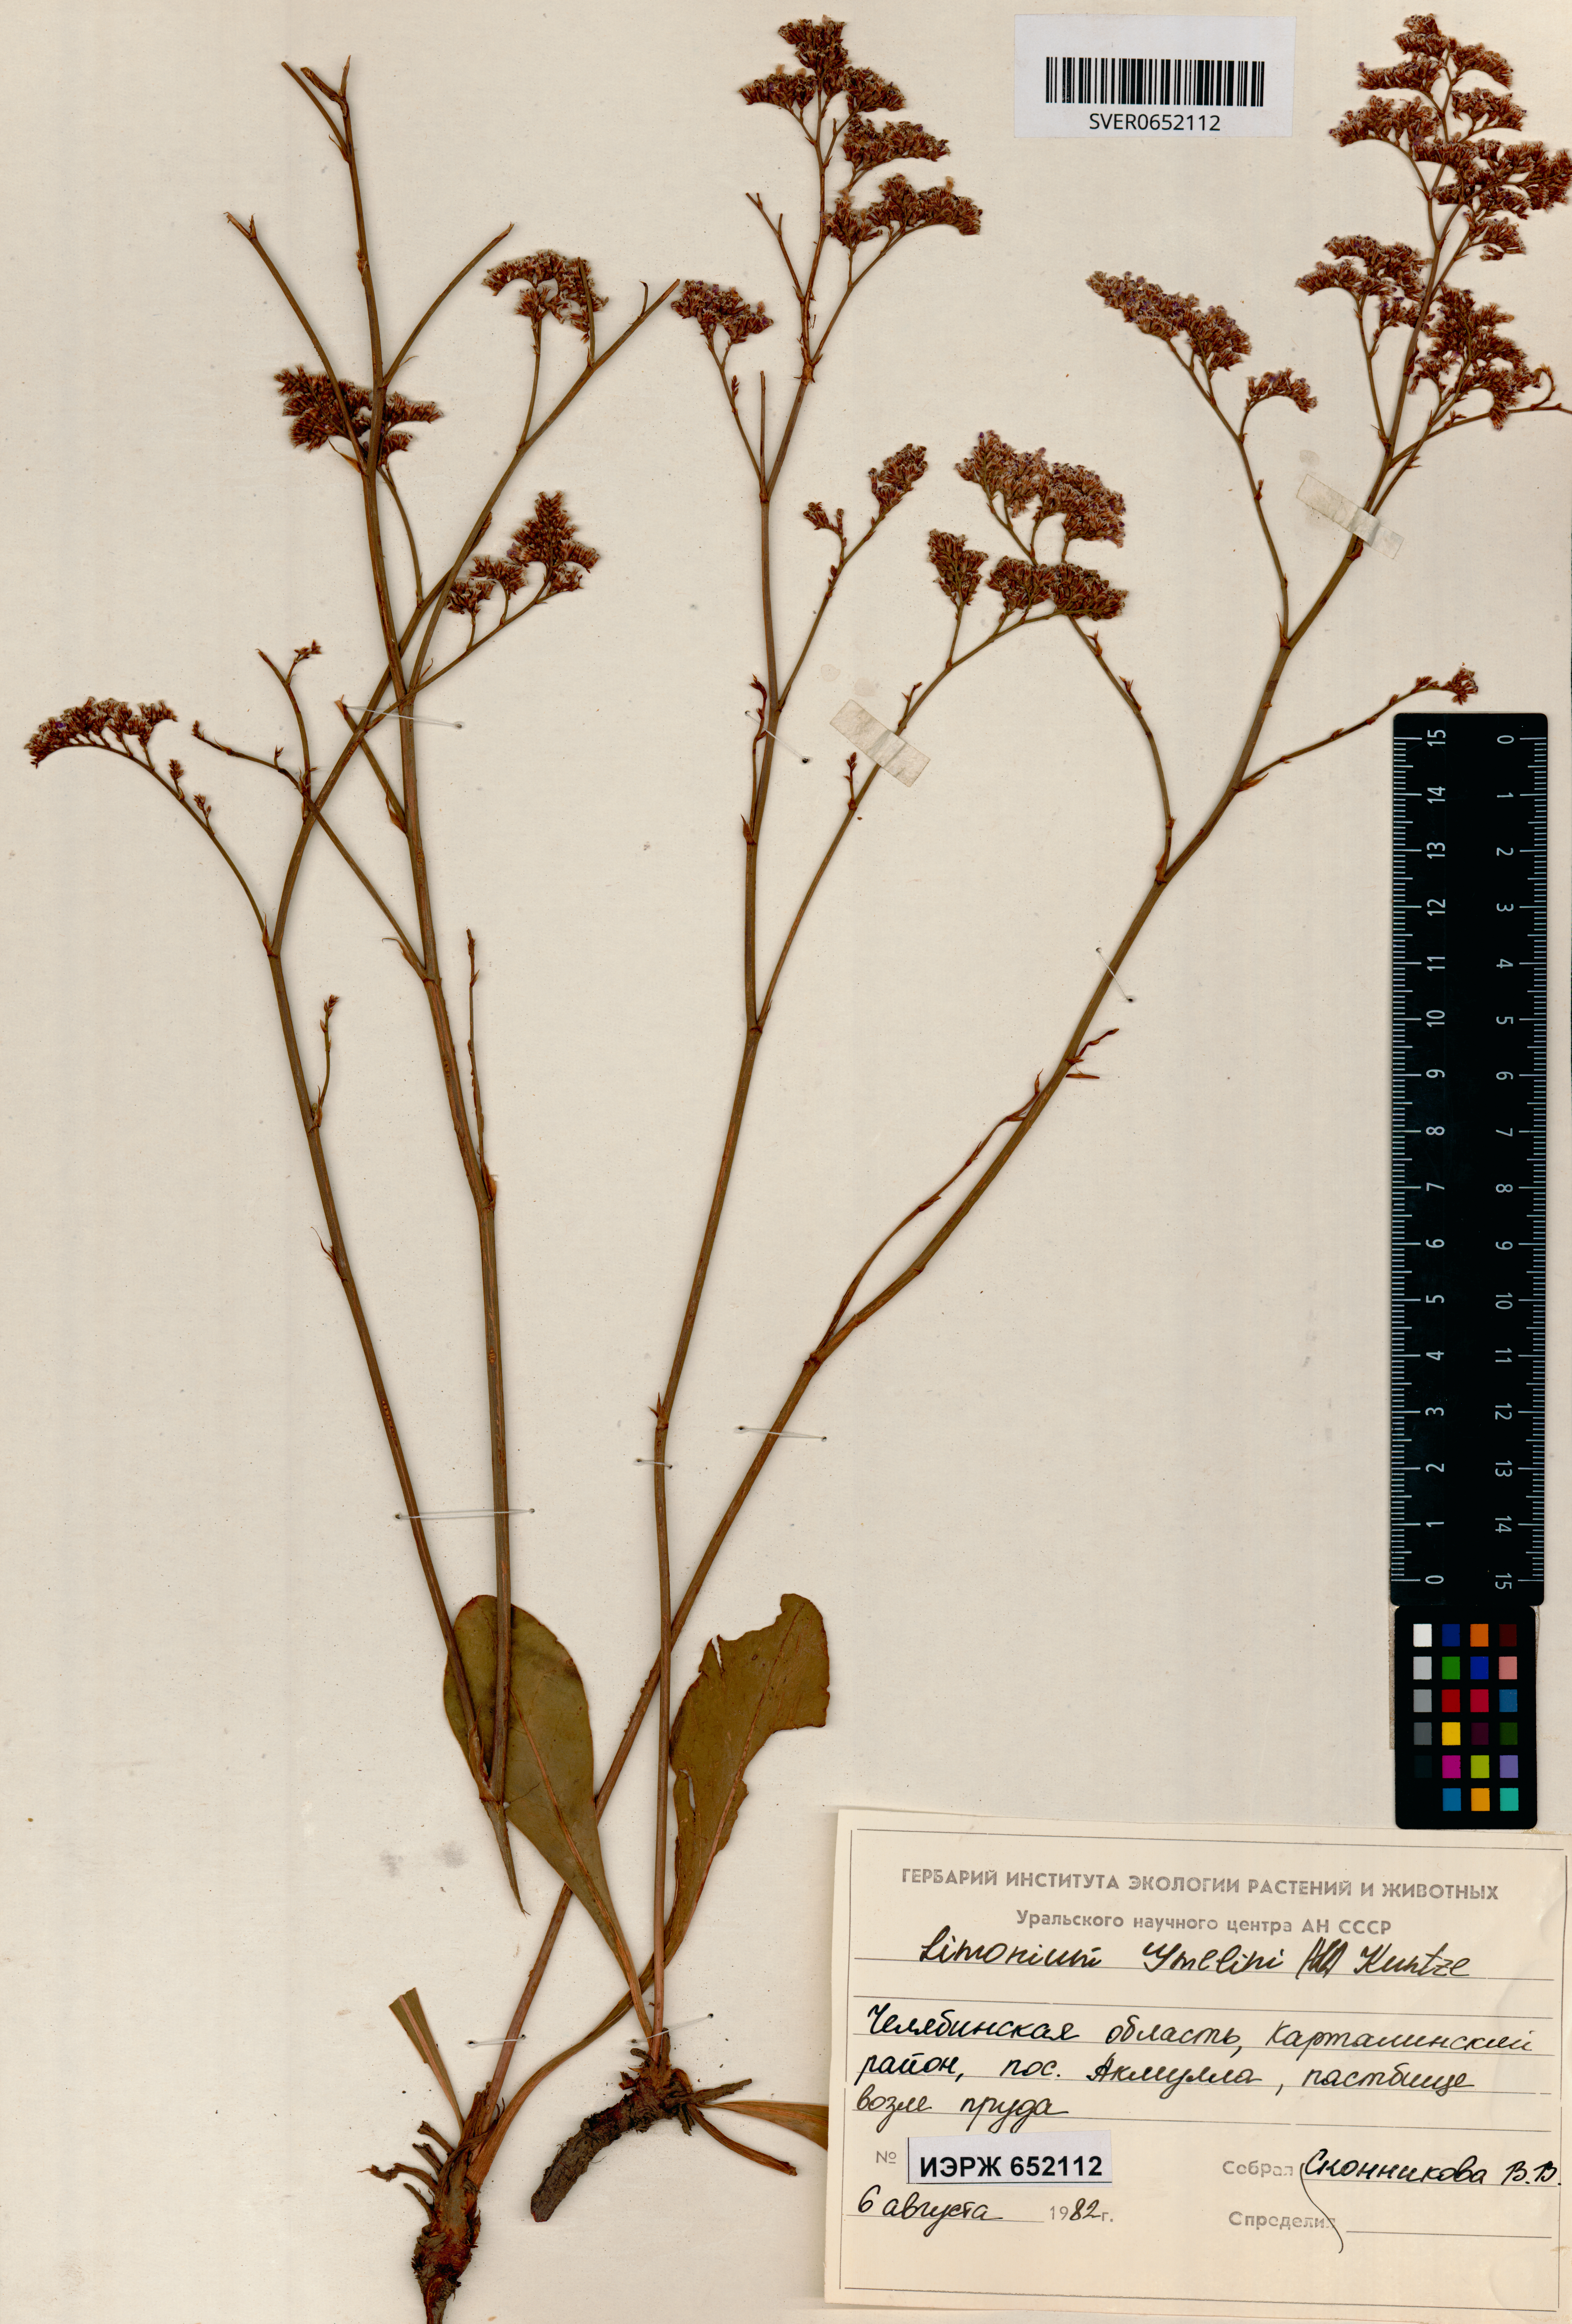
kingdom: Plantae
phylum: Tracheophyta
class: Magnoliopsida
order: Caryophyllales
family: Plumbaginaceae
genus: Limonium
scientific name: Limonium gmelini
